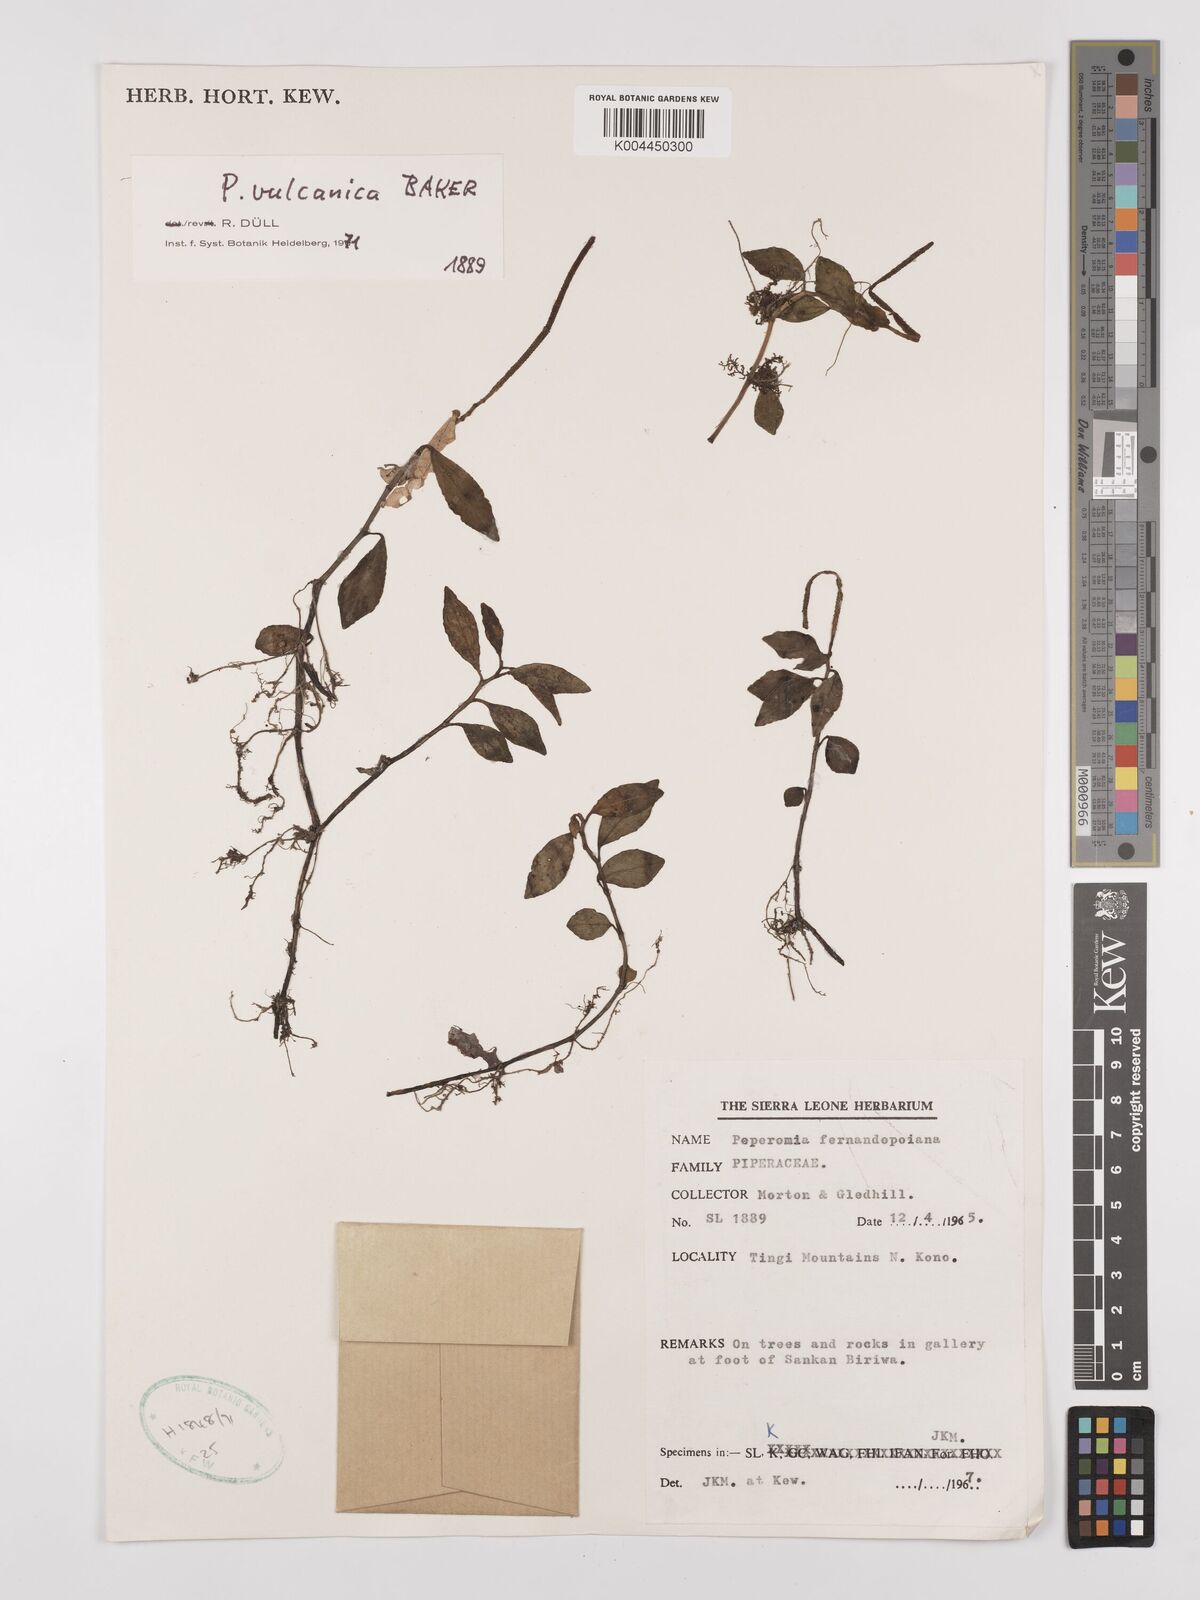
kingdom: Plantae
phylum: Tracheophyta
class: Magnoliopsida
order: Piperales
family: Piperaceae
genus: Peperomia
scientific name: Peperomia vulcanica
